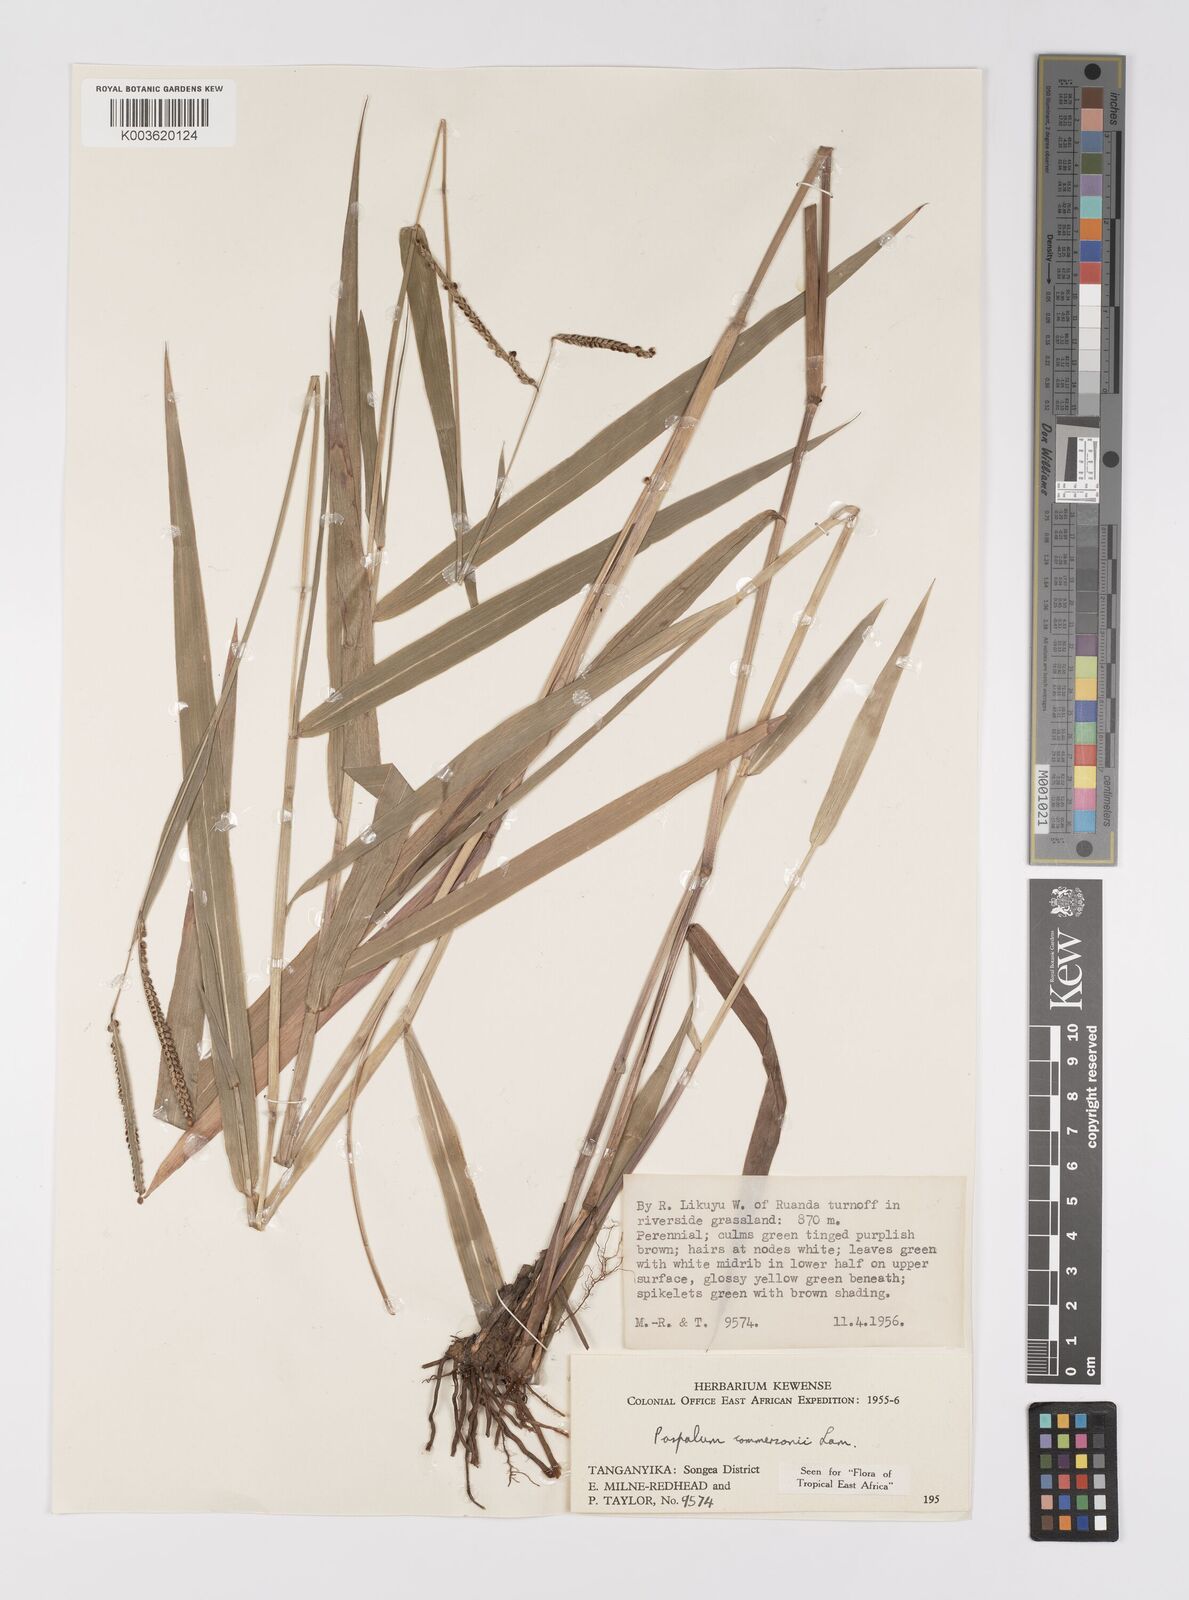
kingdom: Plantae
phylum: Tracheophyta
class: Liliopsida
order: Poales
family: Poaceae
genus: Paspalum
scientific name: Paspalum scrobiculatum
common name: Kodo millet
